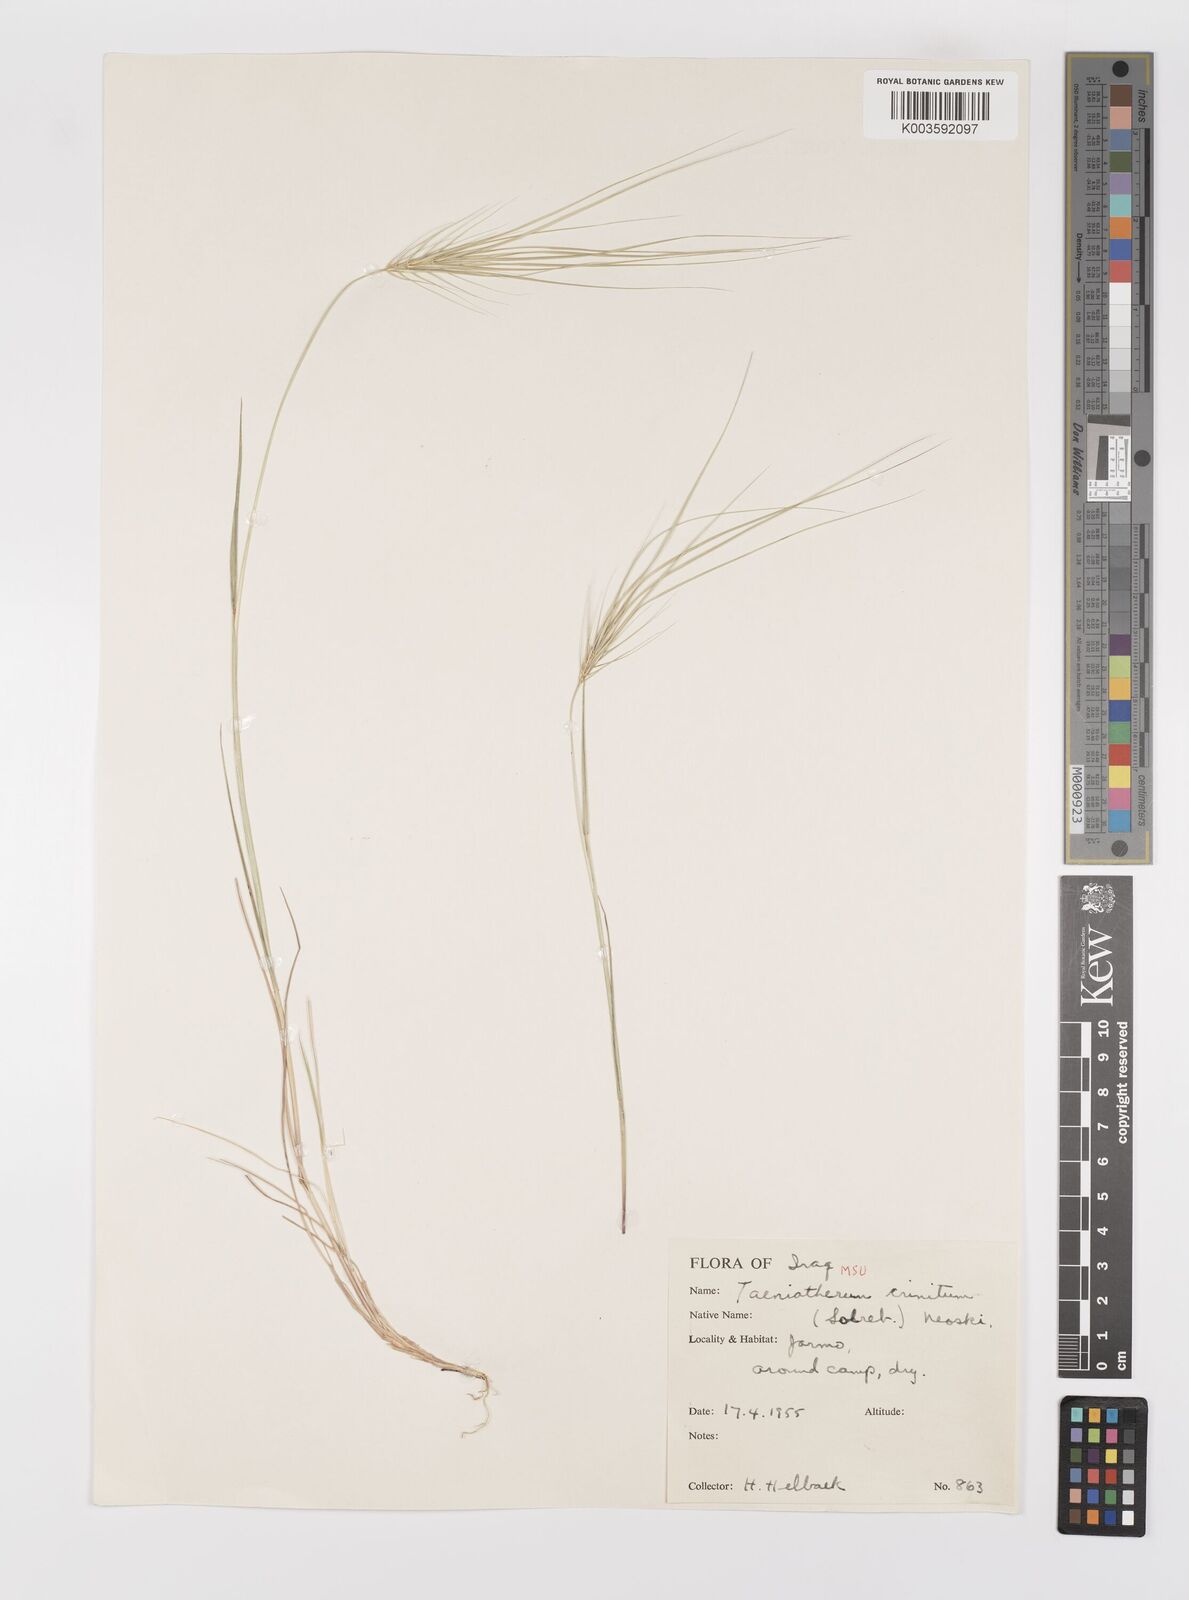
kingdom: Plantae
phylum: Tracheophyta
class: Liliopsida
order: Poales
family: Poaceae
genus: Taeniatherum
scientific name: Taeniatherum caput-medusae
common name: Medusahead
